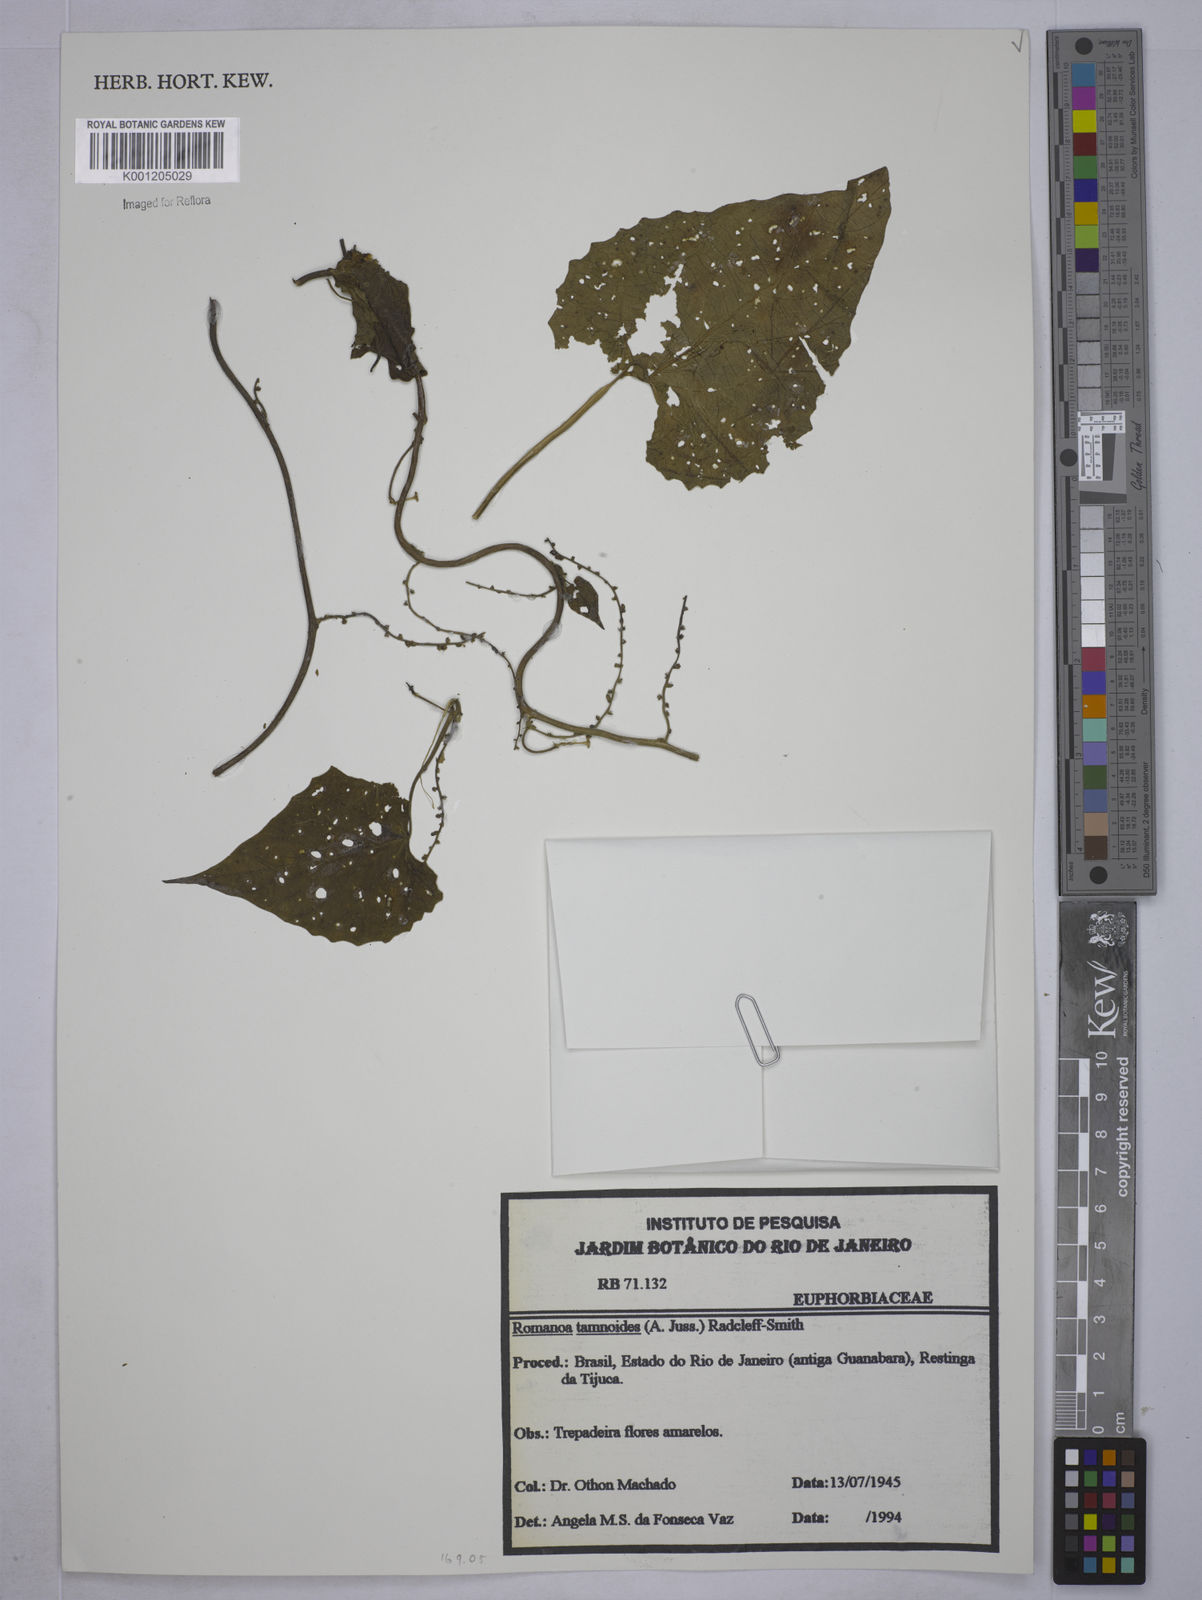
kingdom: Plantae
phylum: Tracheophyta
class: Magnoliopsida
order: Malpighiales
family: Euphorbiaceae
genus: Romanoa
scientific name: Romanoa tamnoides
